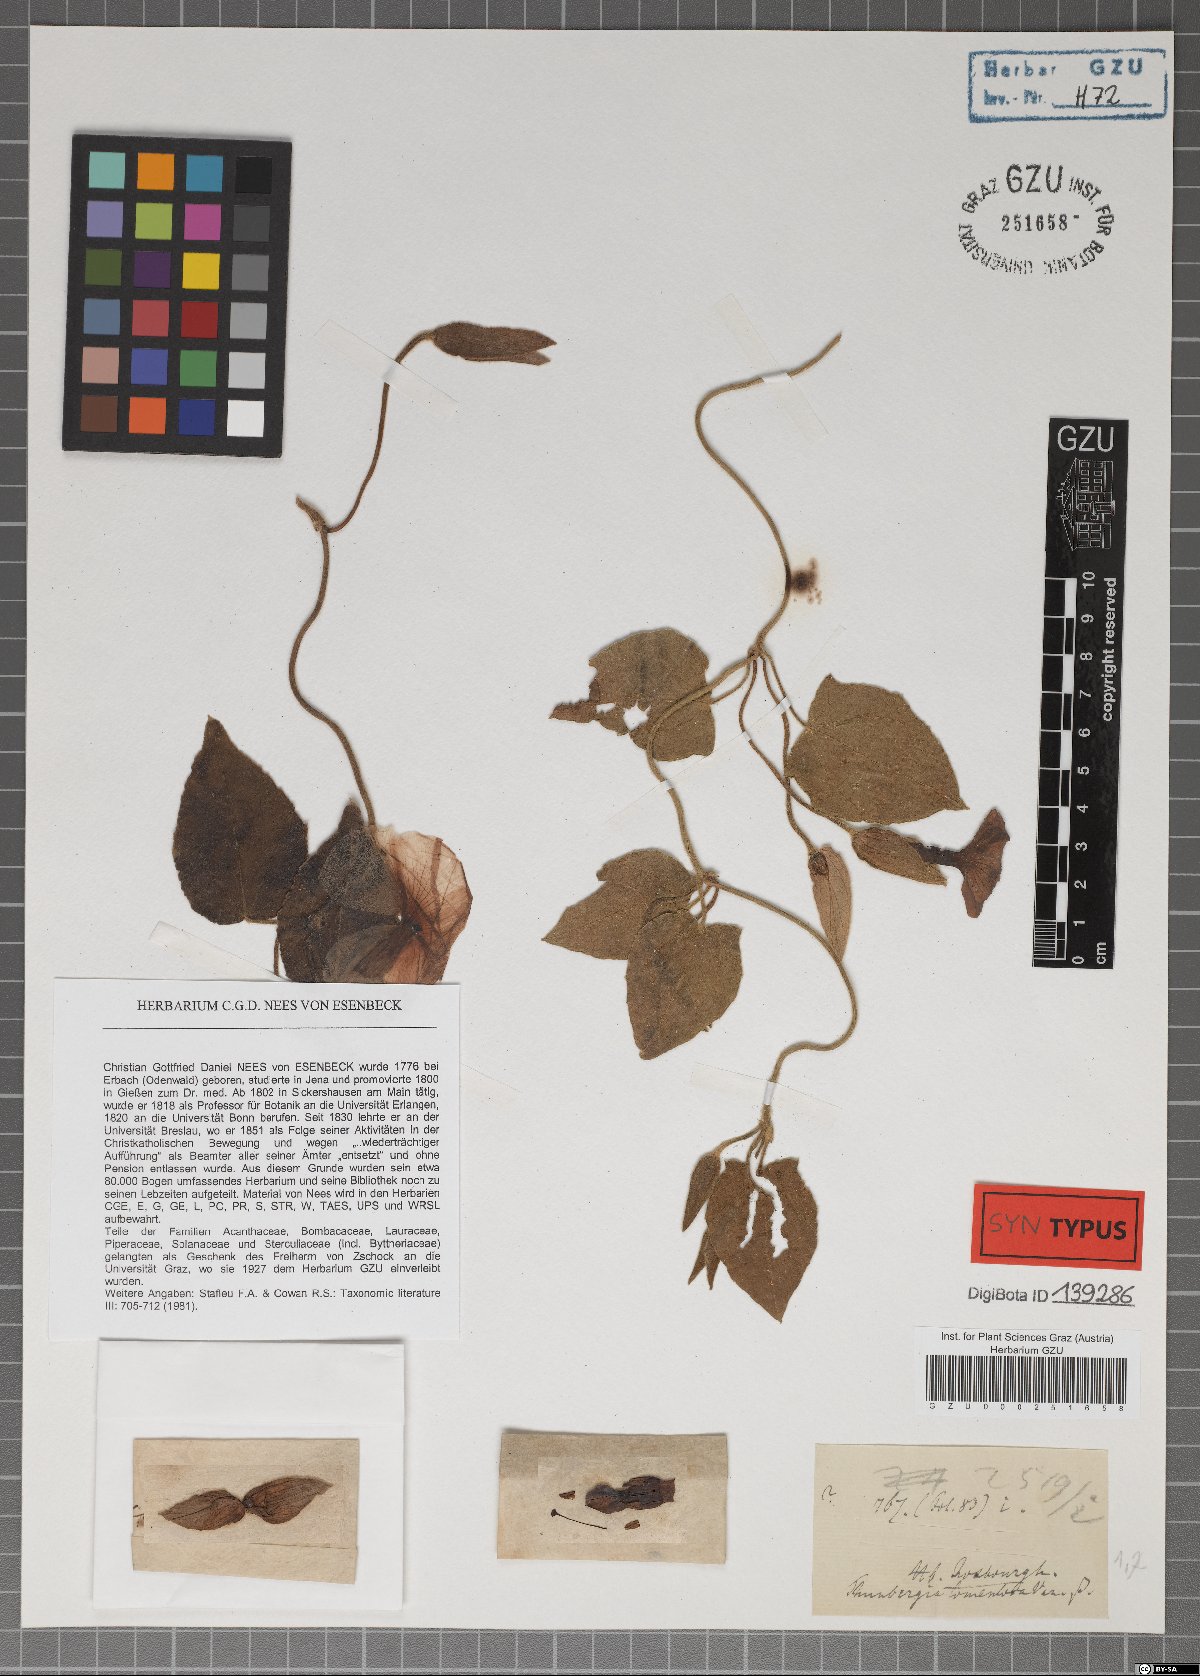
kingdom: Plantae
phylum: Tracheophyta
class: Magnoliopsida
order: Lamiales
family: Acanthaceae
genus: Thunbergia
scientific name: Thunbergia laevis
